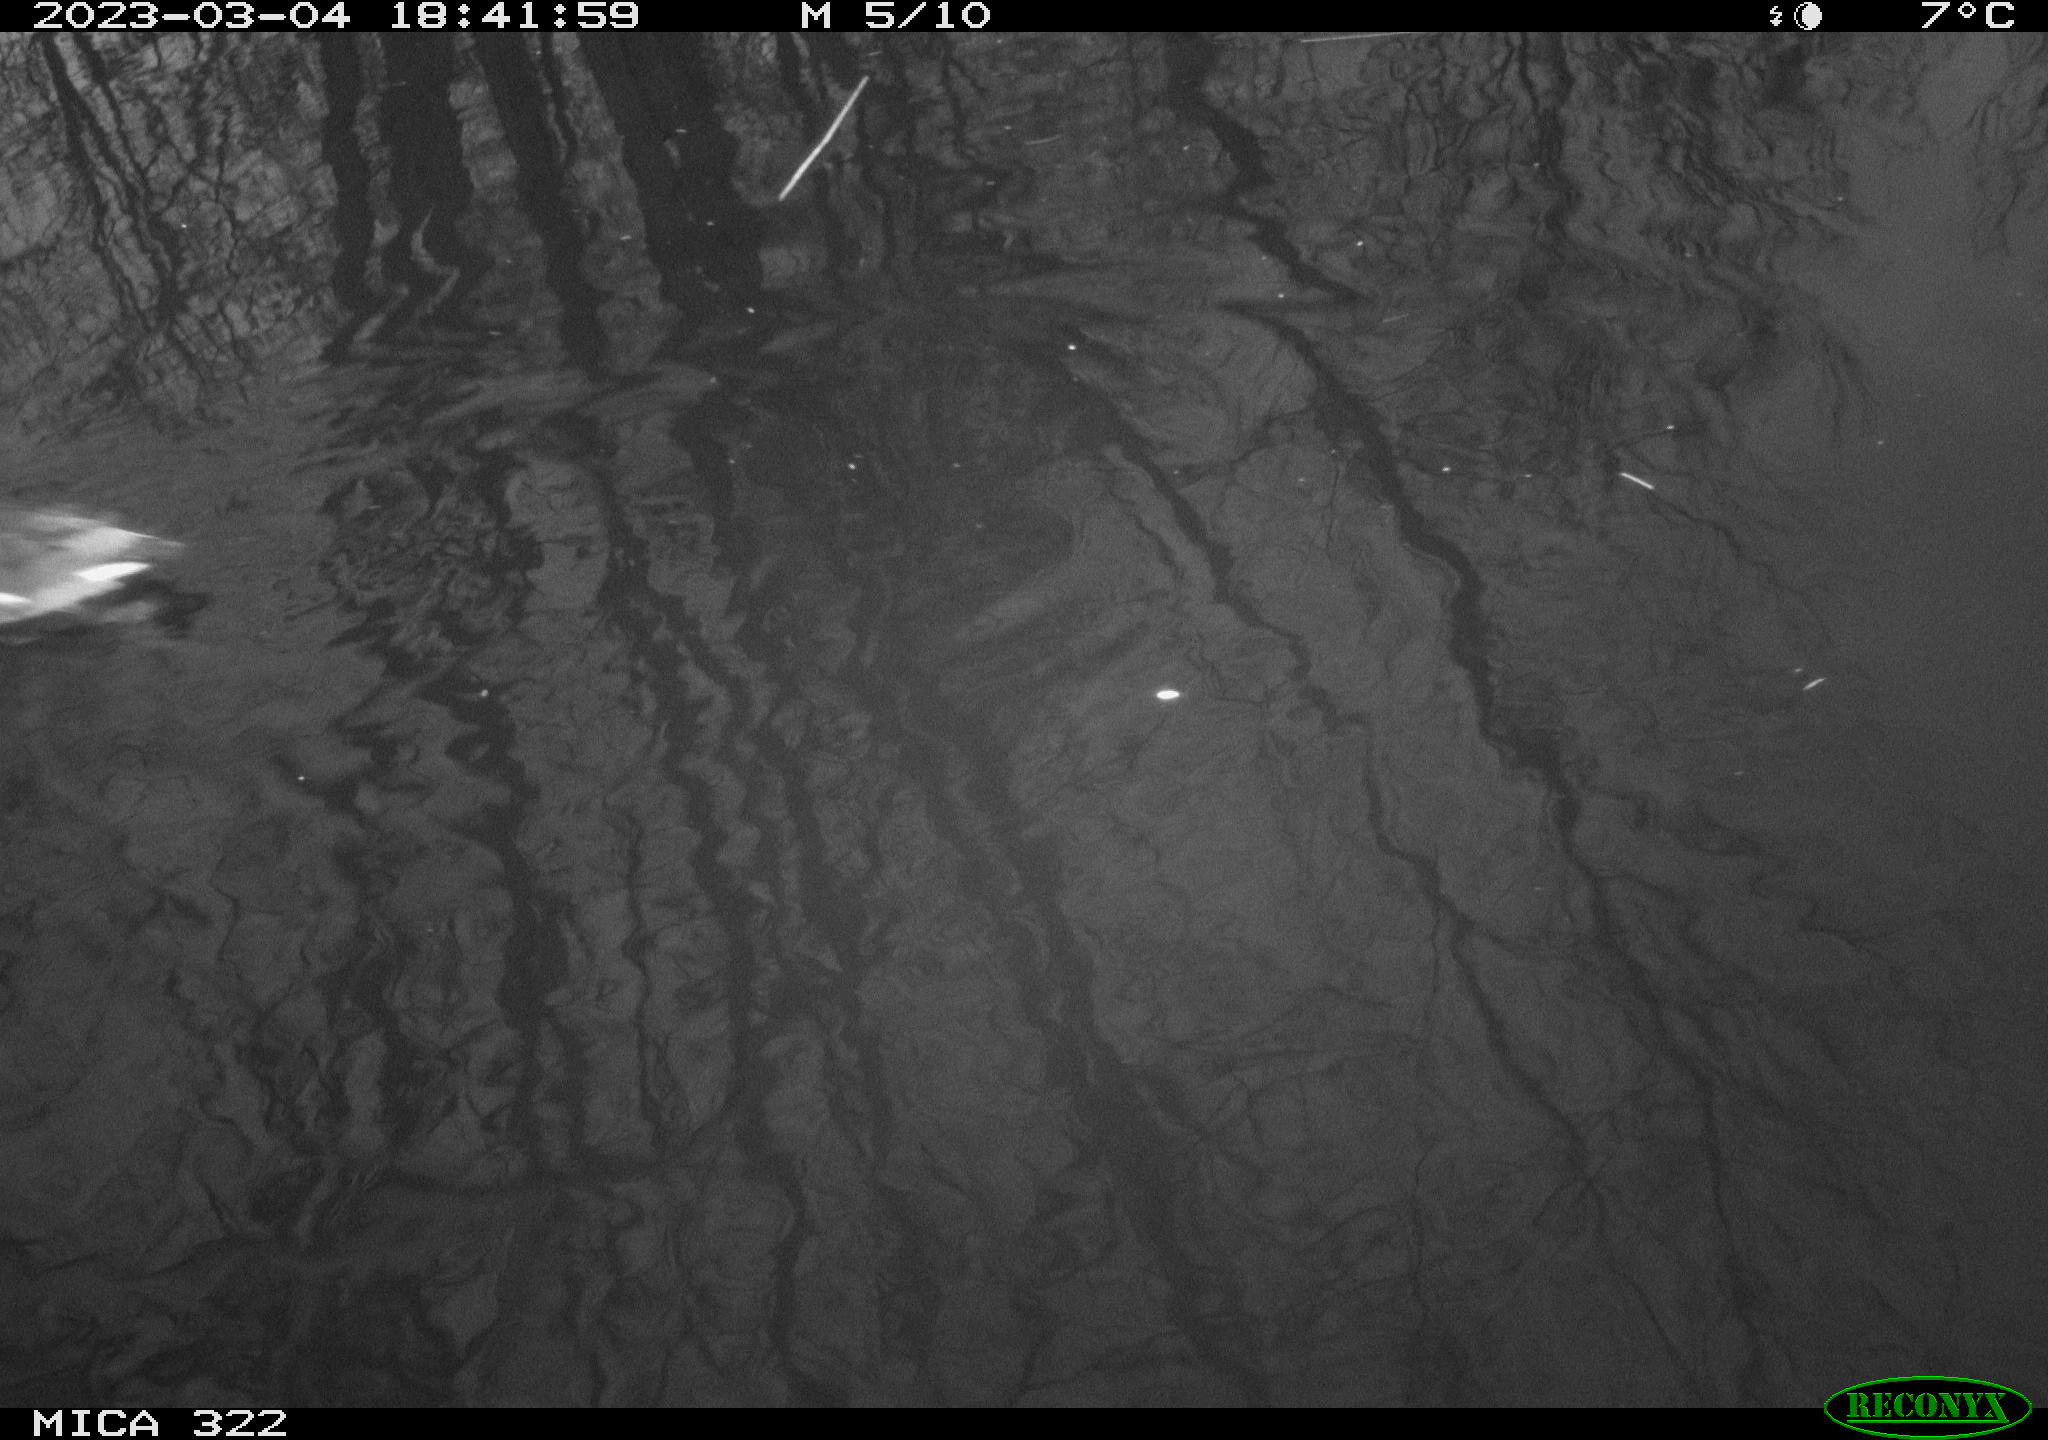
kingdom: Animalia
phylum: Chordata
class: Aves
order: Gruiformes
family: Rallidae
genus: Gallinula
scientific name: Gallinula chloropus
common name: Common moorhen
